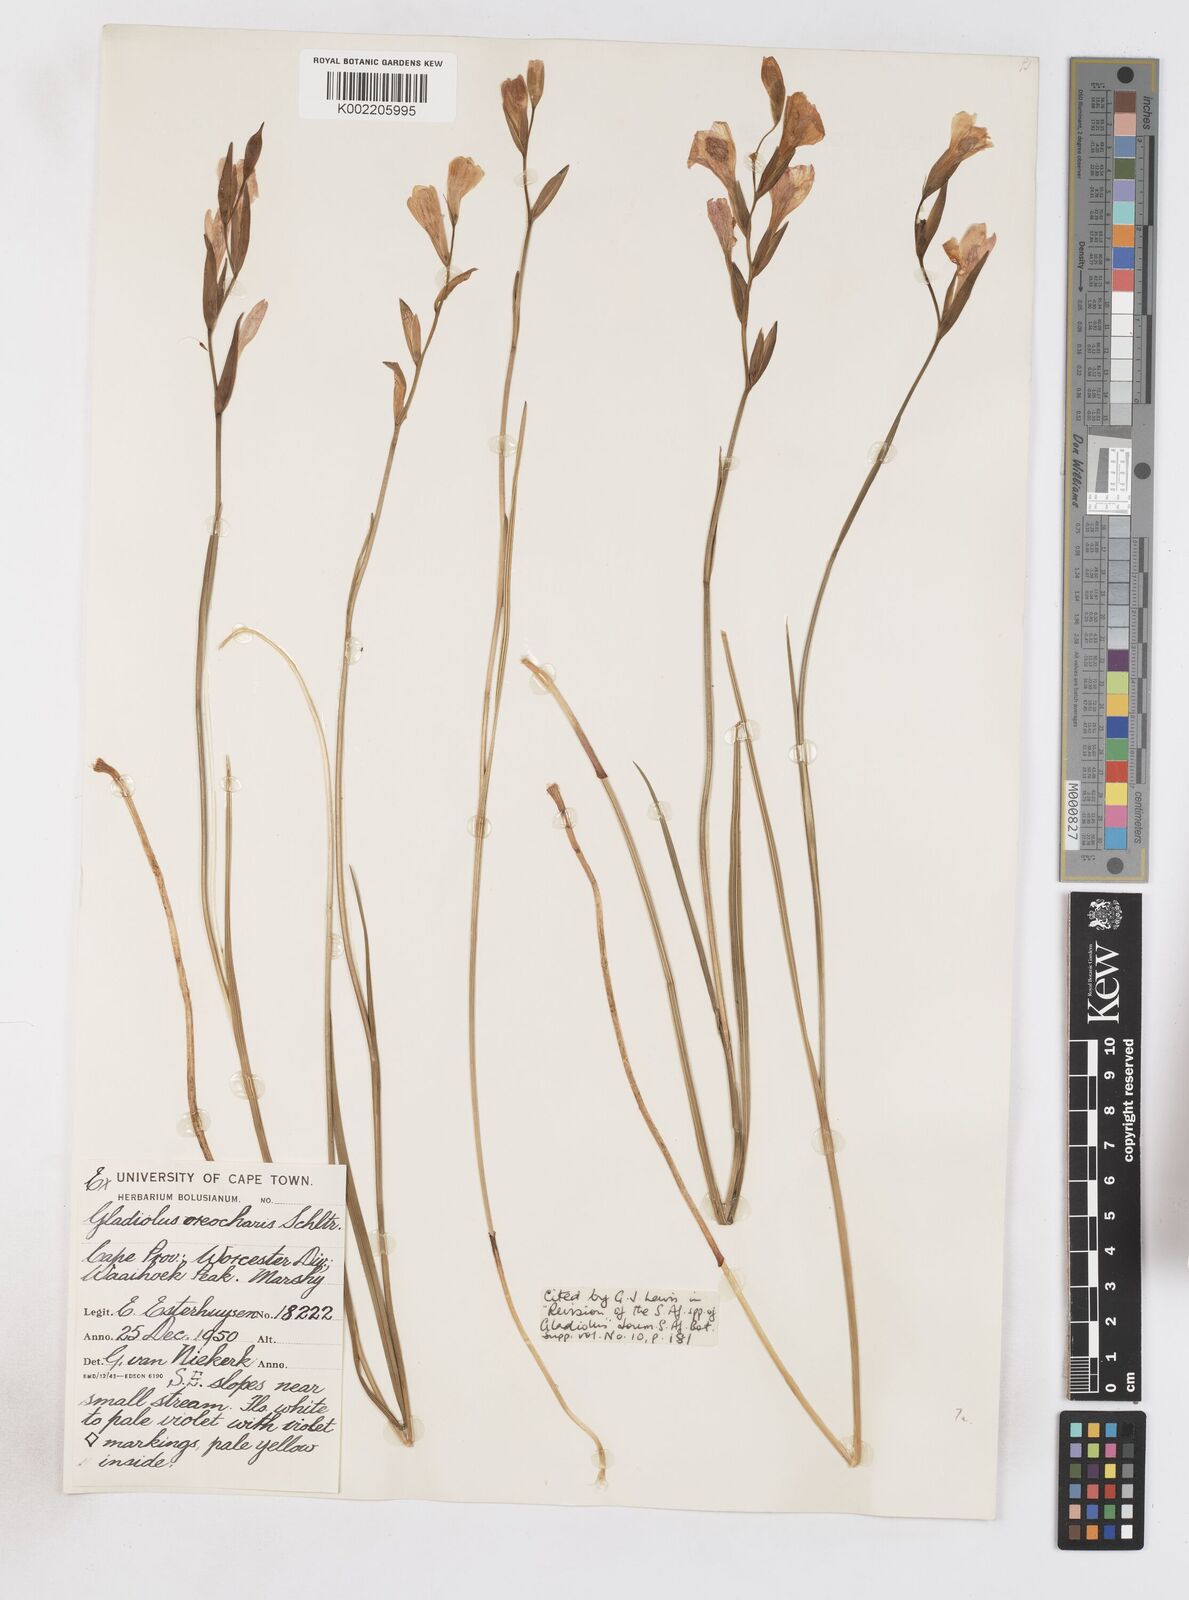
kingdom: Plantae
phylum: Tracheophyta
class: Liliopsida
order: Asparagales
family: Iridaceae
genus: Gladiolus
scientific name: Gladiolus oreocharis
